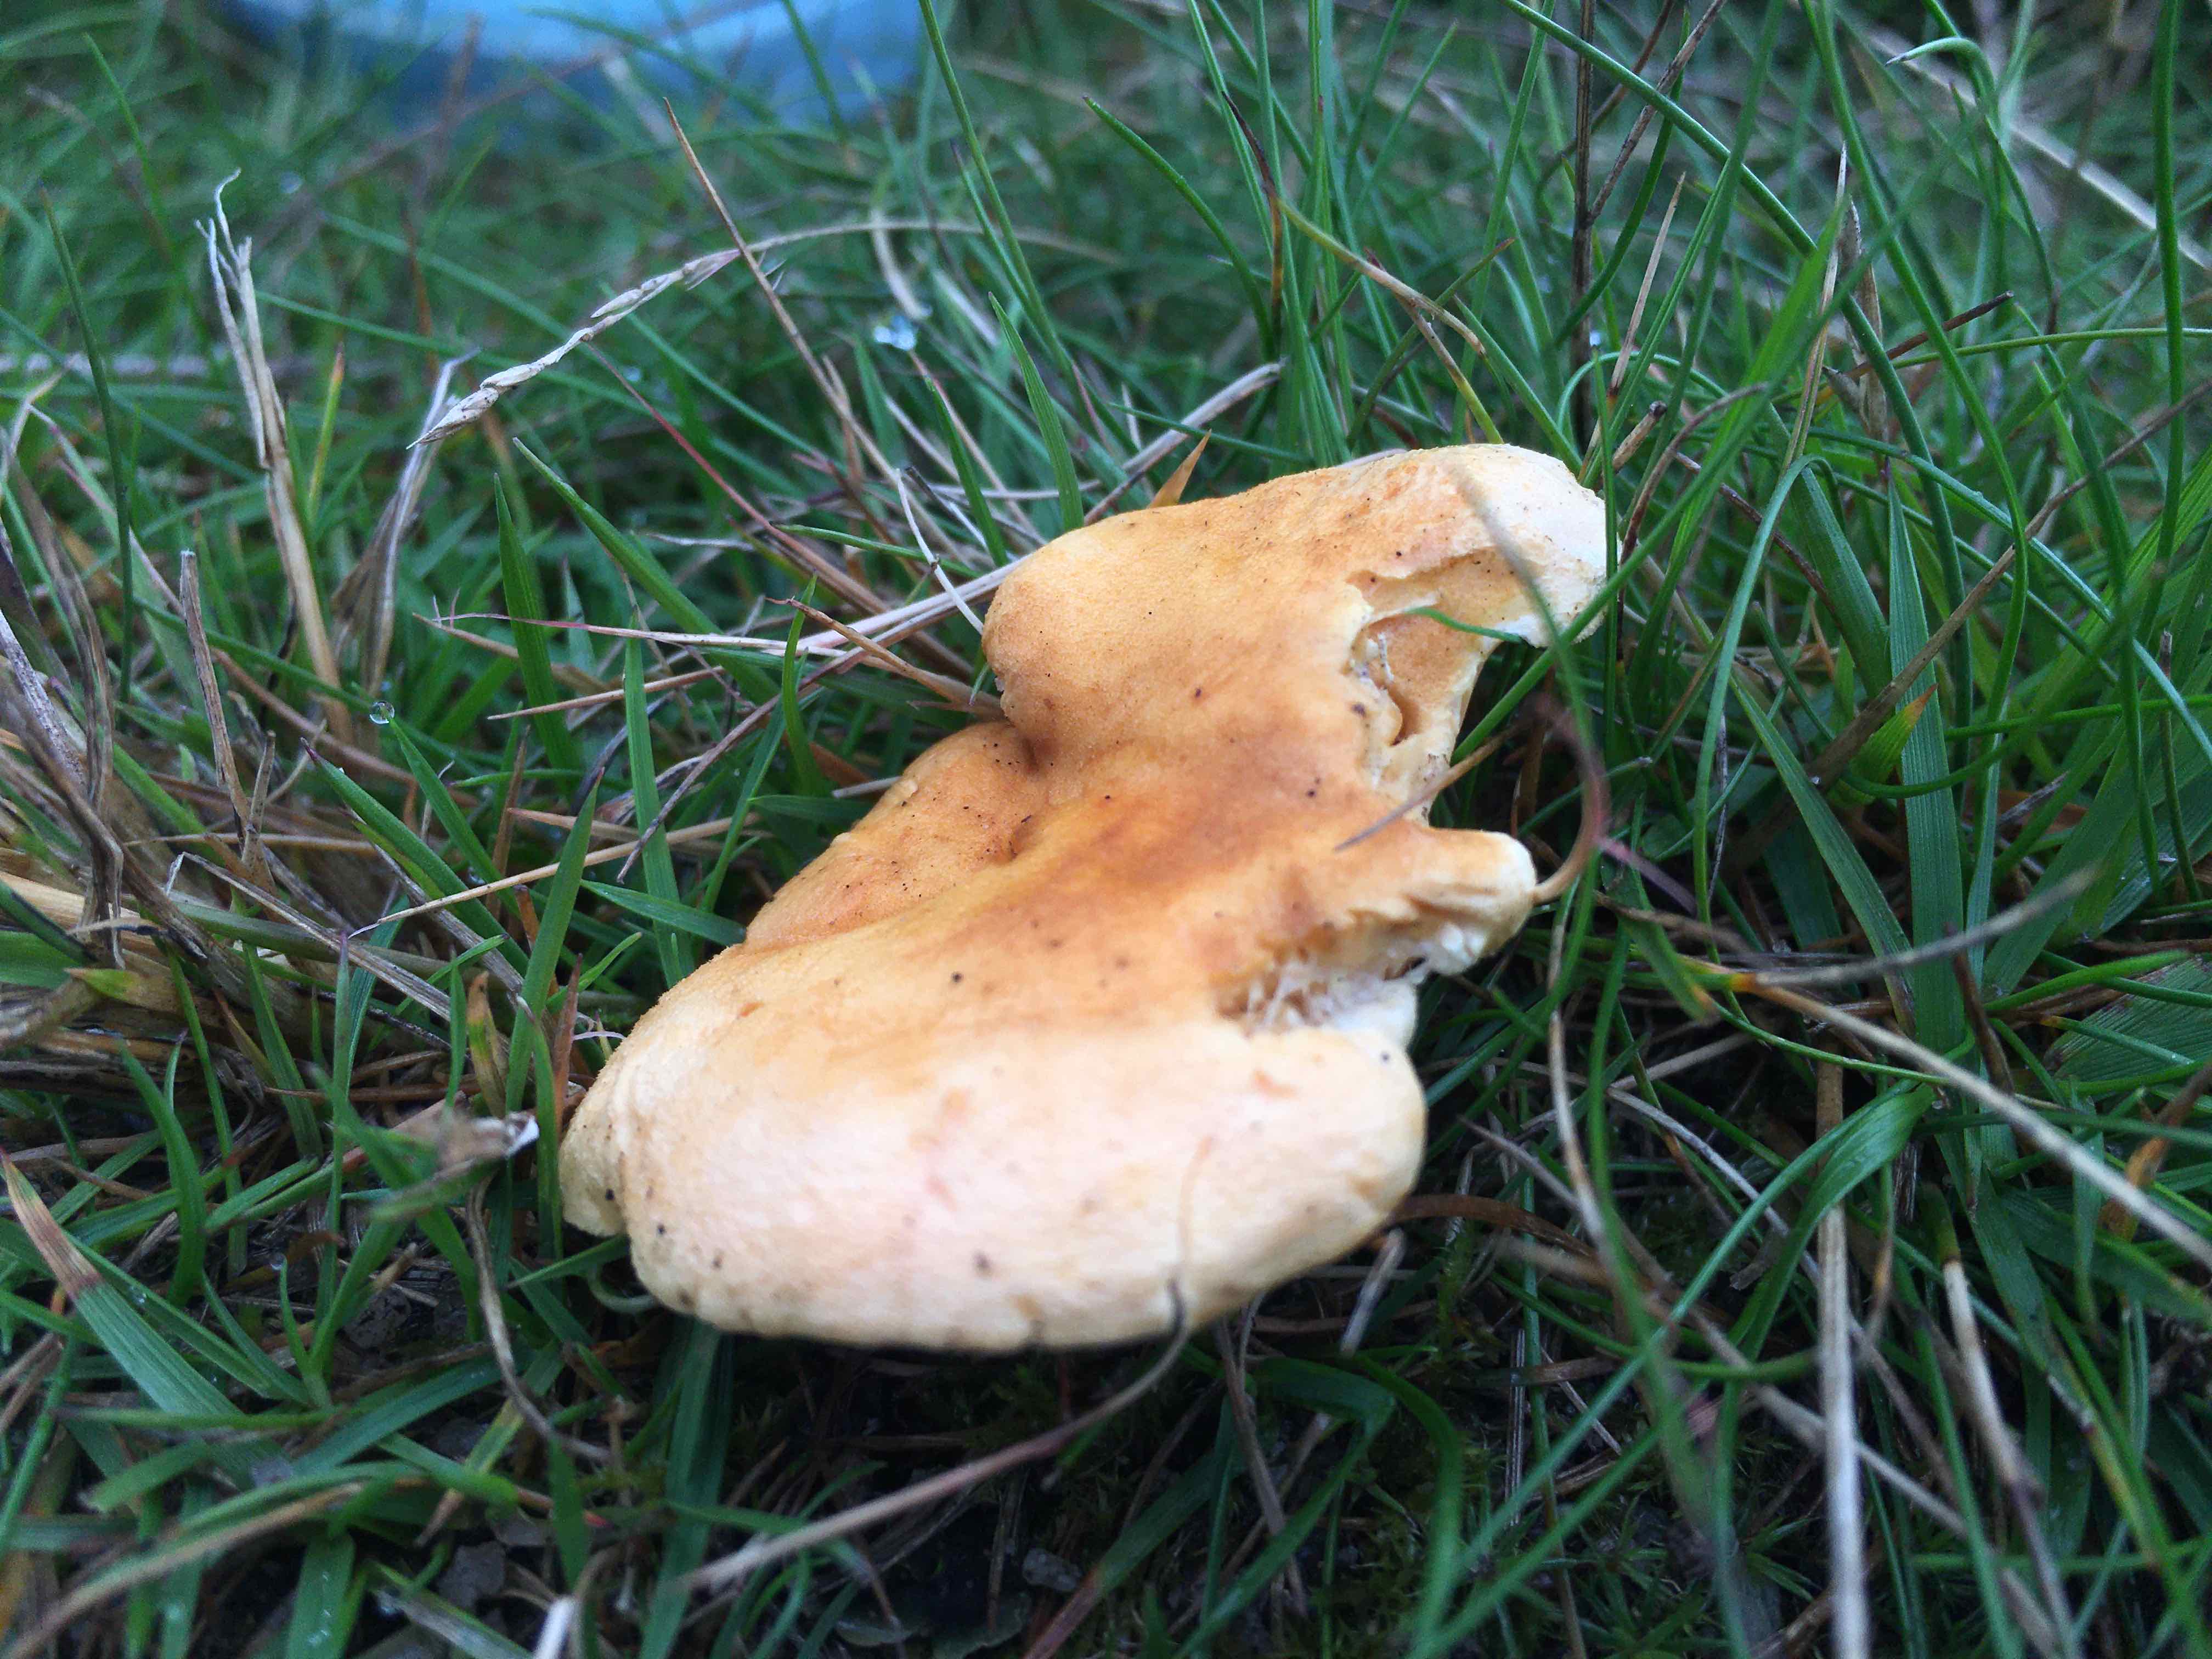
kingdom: Fungi
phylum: Basidiomycota
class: Agaricomycetes
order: Boletales
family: Hygrophoropsidaceae
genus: Hygrophoropsis
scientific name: Hygrophoropsis aurantiaca
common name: almindelig orangekantarel
